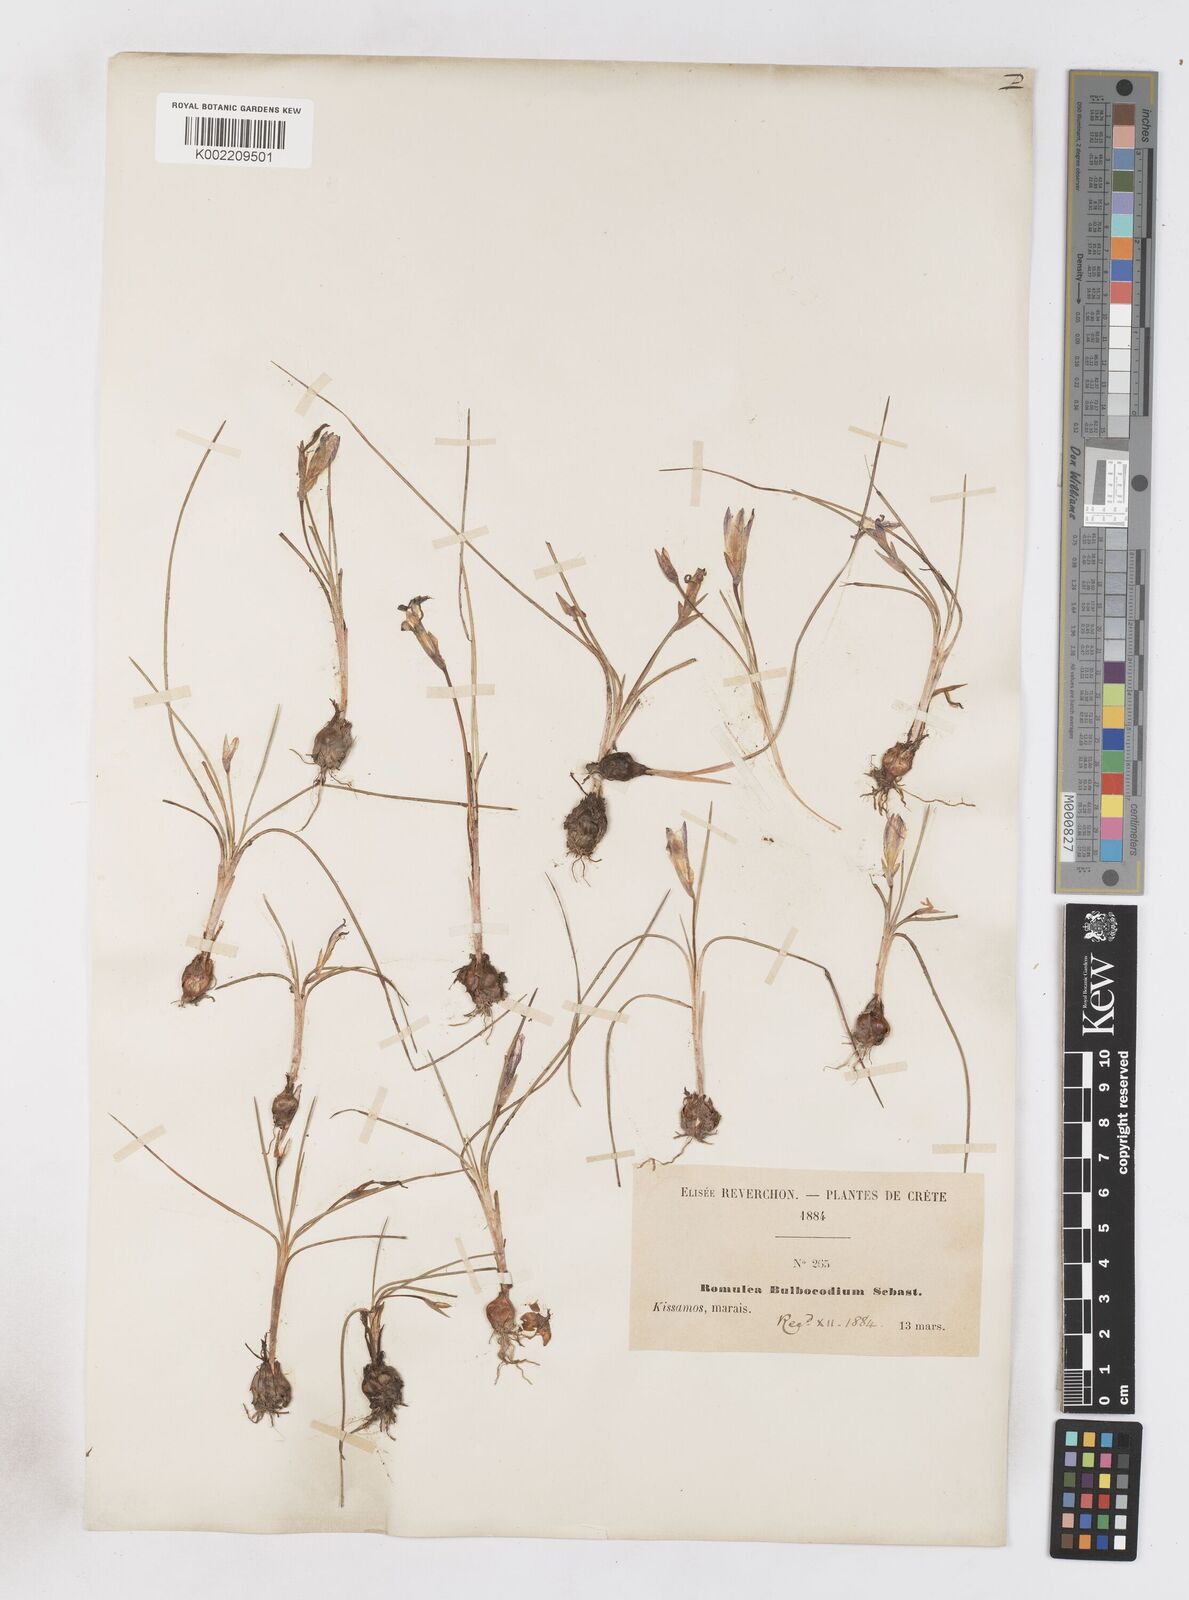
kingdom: Plantae
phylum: Tracheophyta
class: Liliopsida
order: Asparagales
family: Iridaceae
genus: Romulea
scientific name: Romulea bulbocodium
